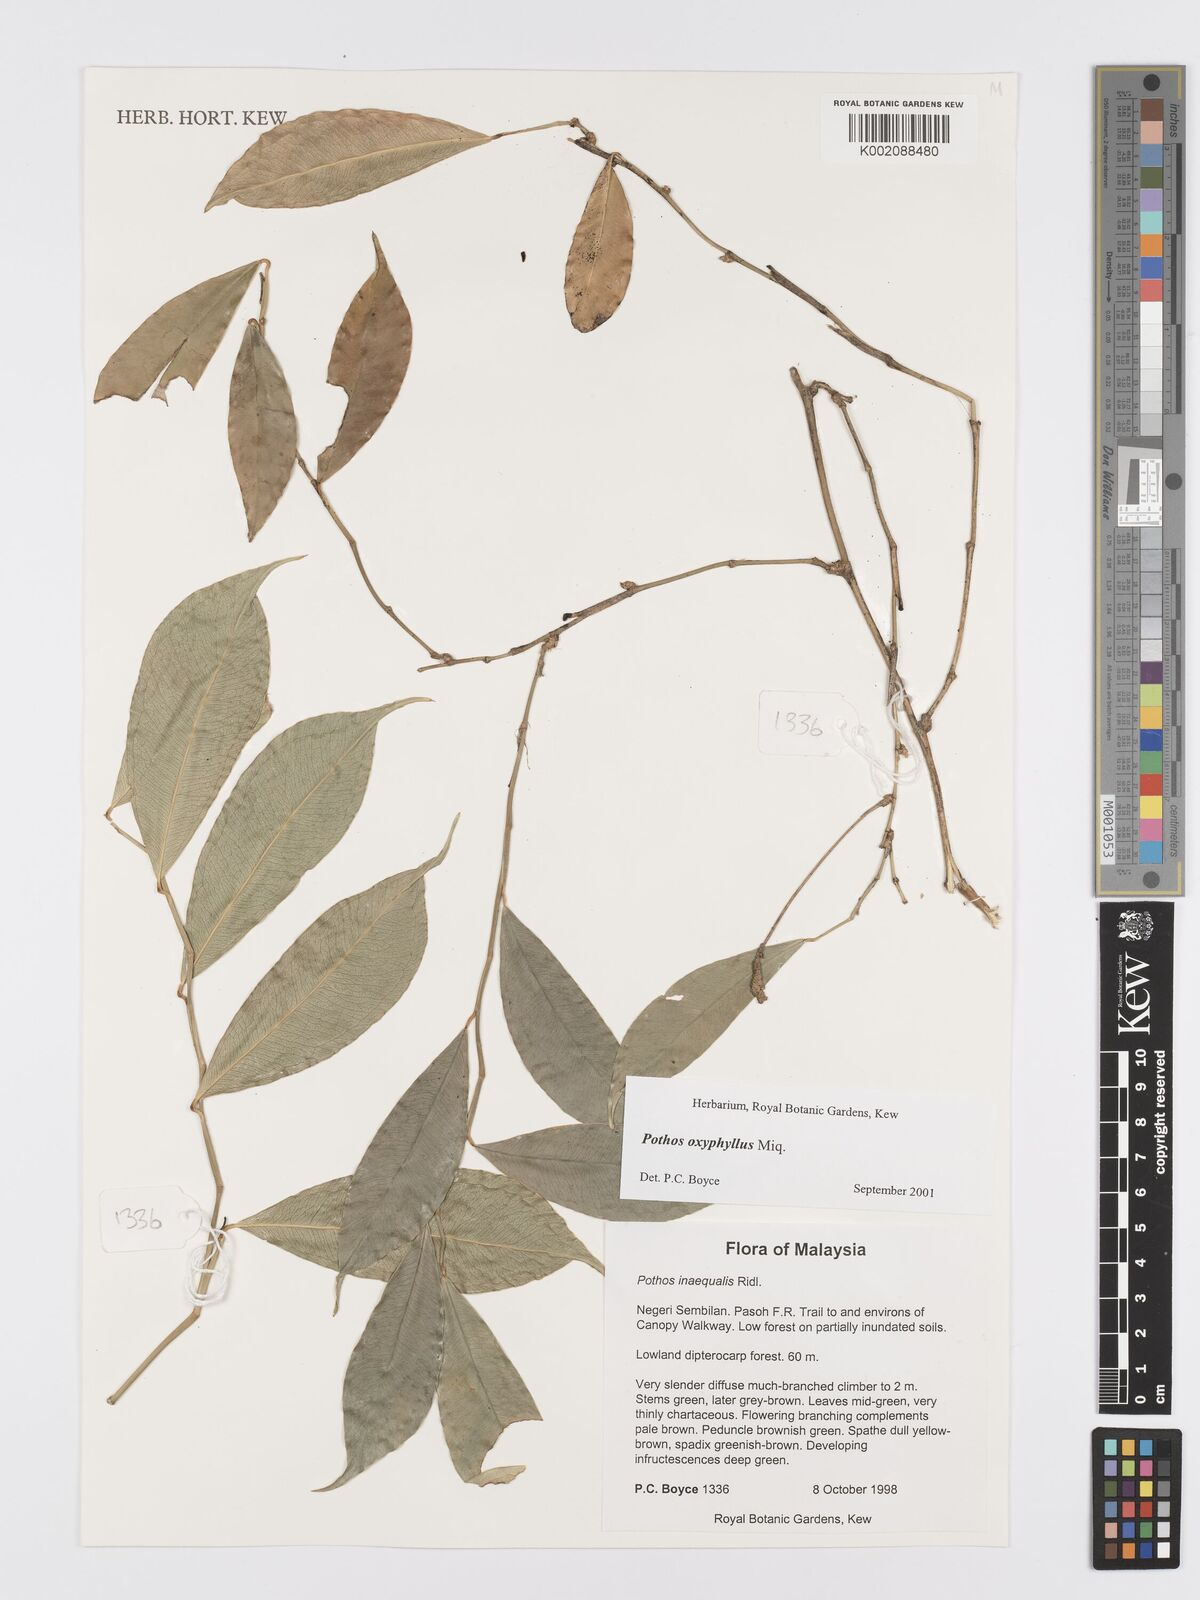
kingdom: Plantae
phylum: Tracheophyta
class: Liliopsida
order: Alismatales
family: Araceae
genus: Pothos
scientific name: Pothos oxyphyllus
